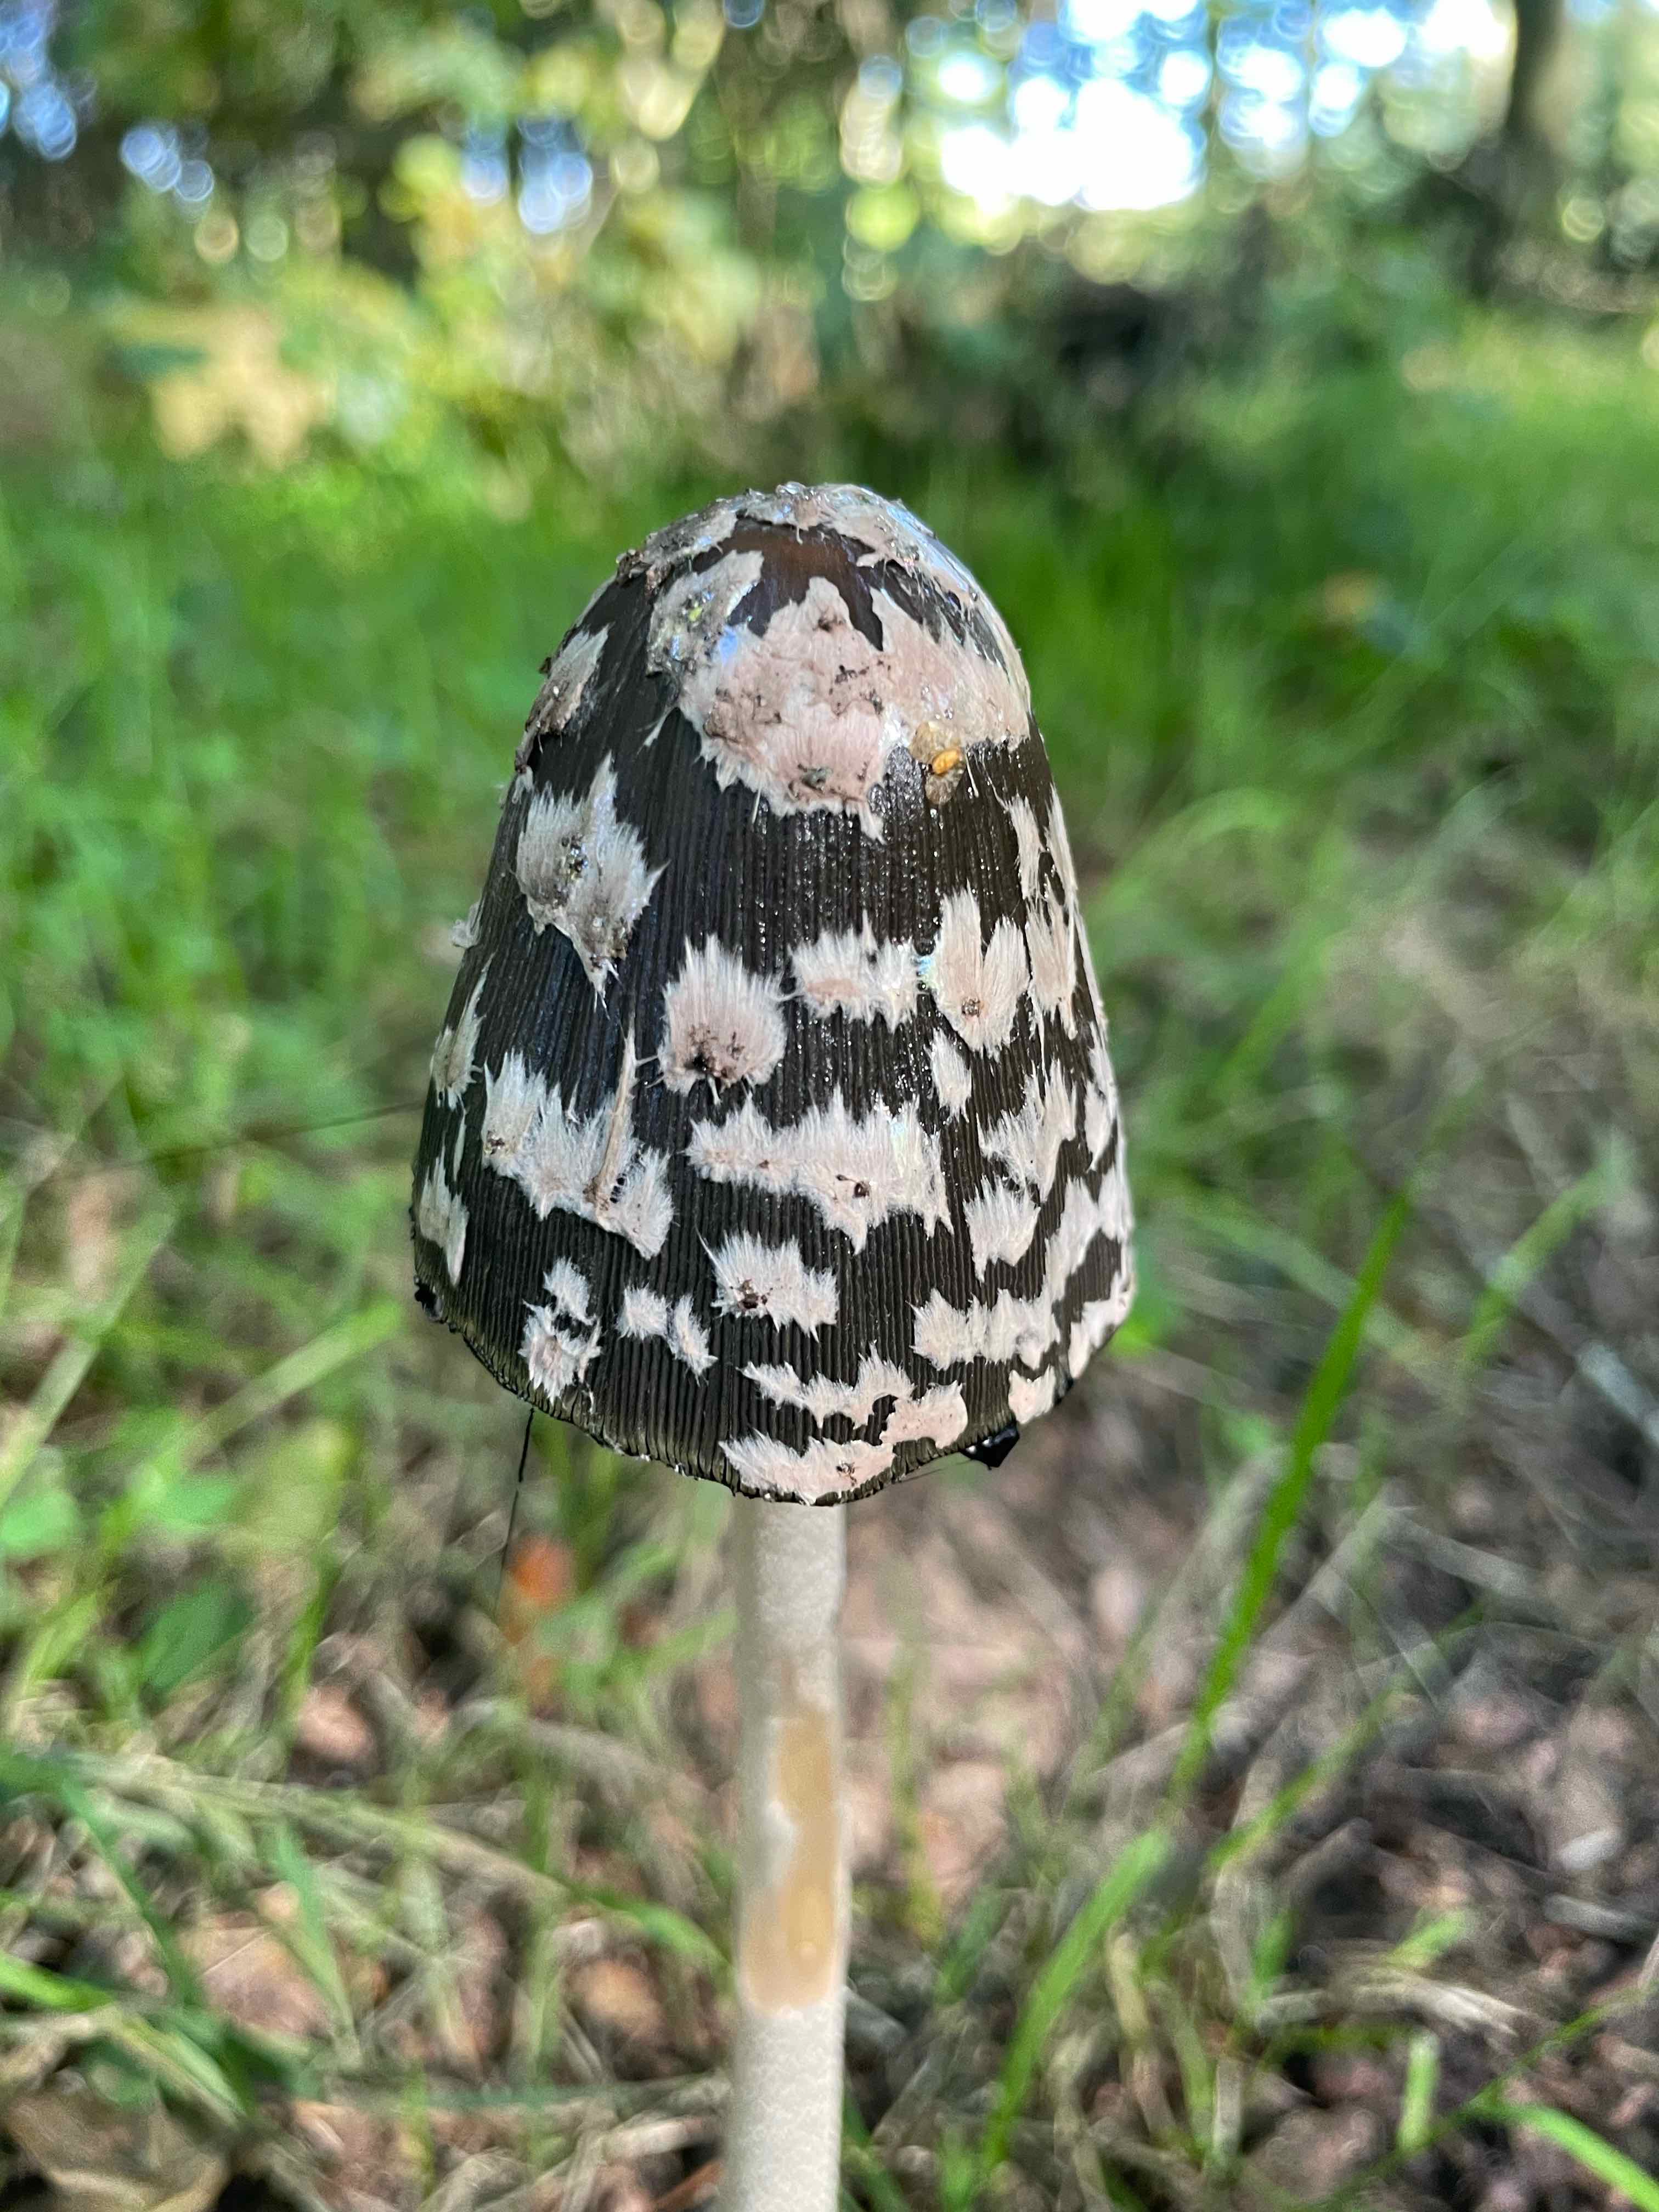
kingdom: Fungi
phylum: Basidiomycota
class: Agaricomycetes
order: Agaricales
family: Psathyrellaceae
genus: Coprinopsis
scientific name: Coprinopsis picacea
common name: skade-blækhat
